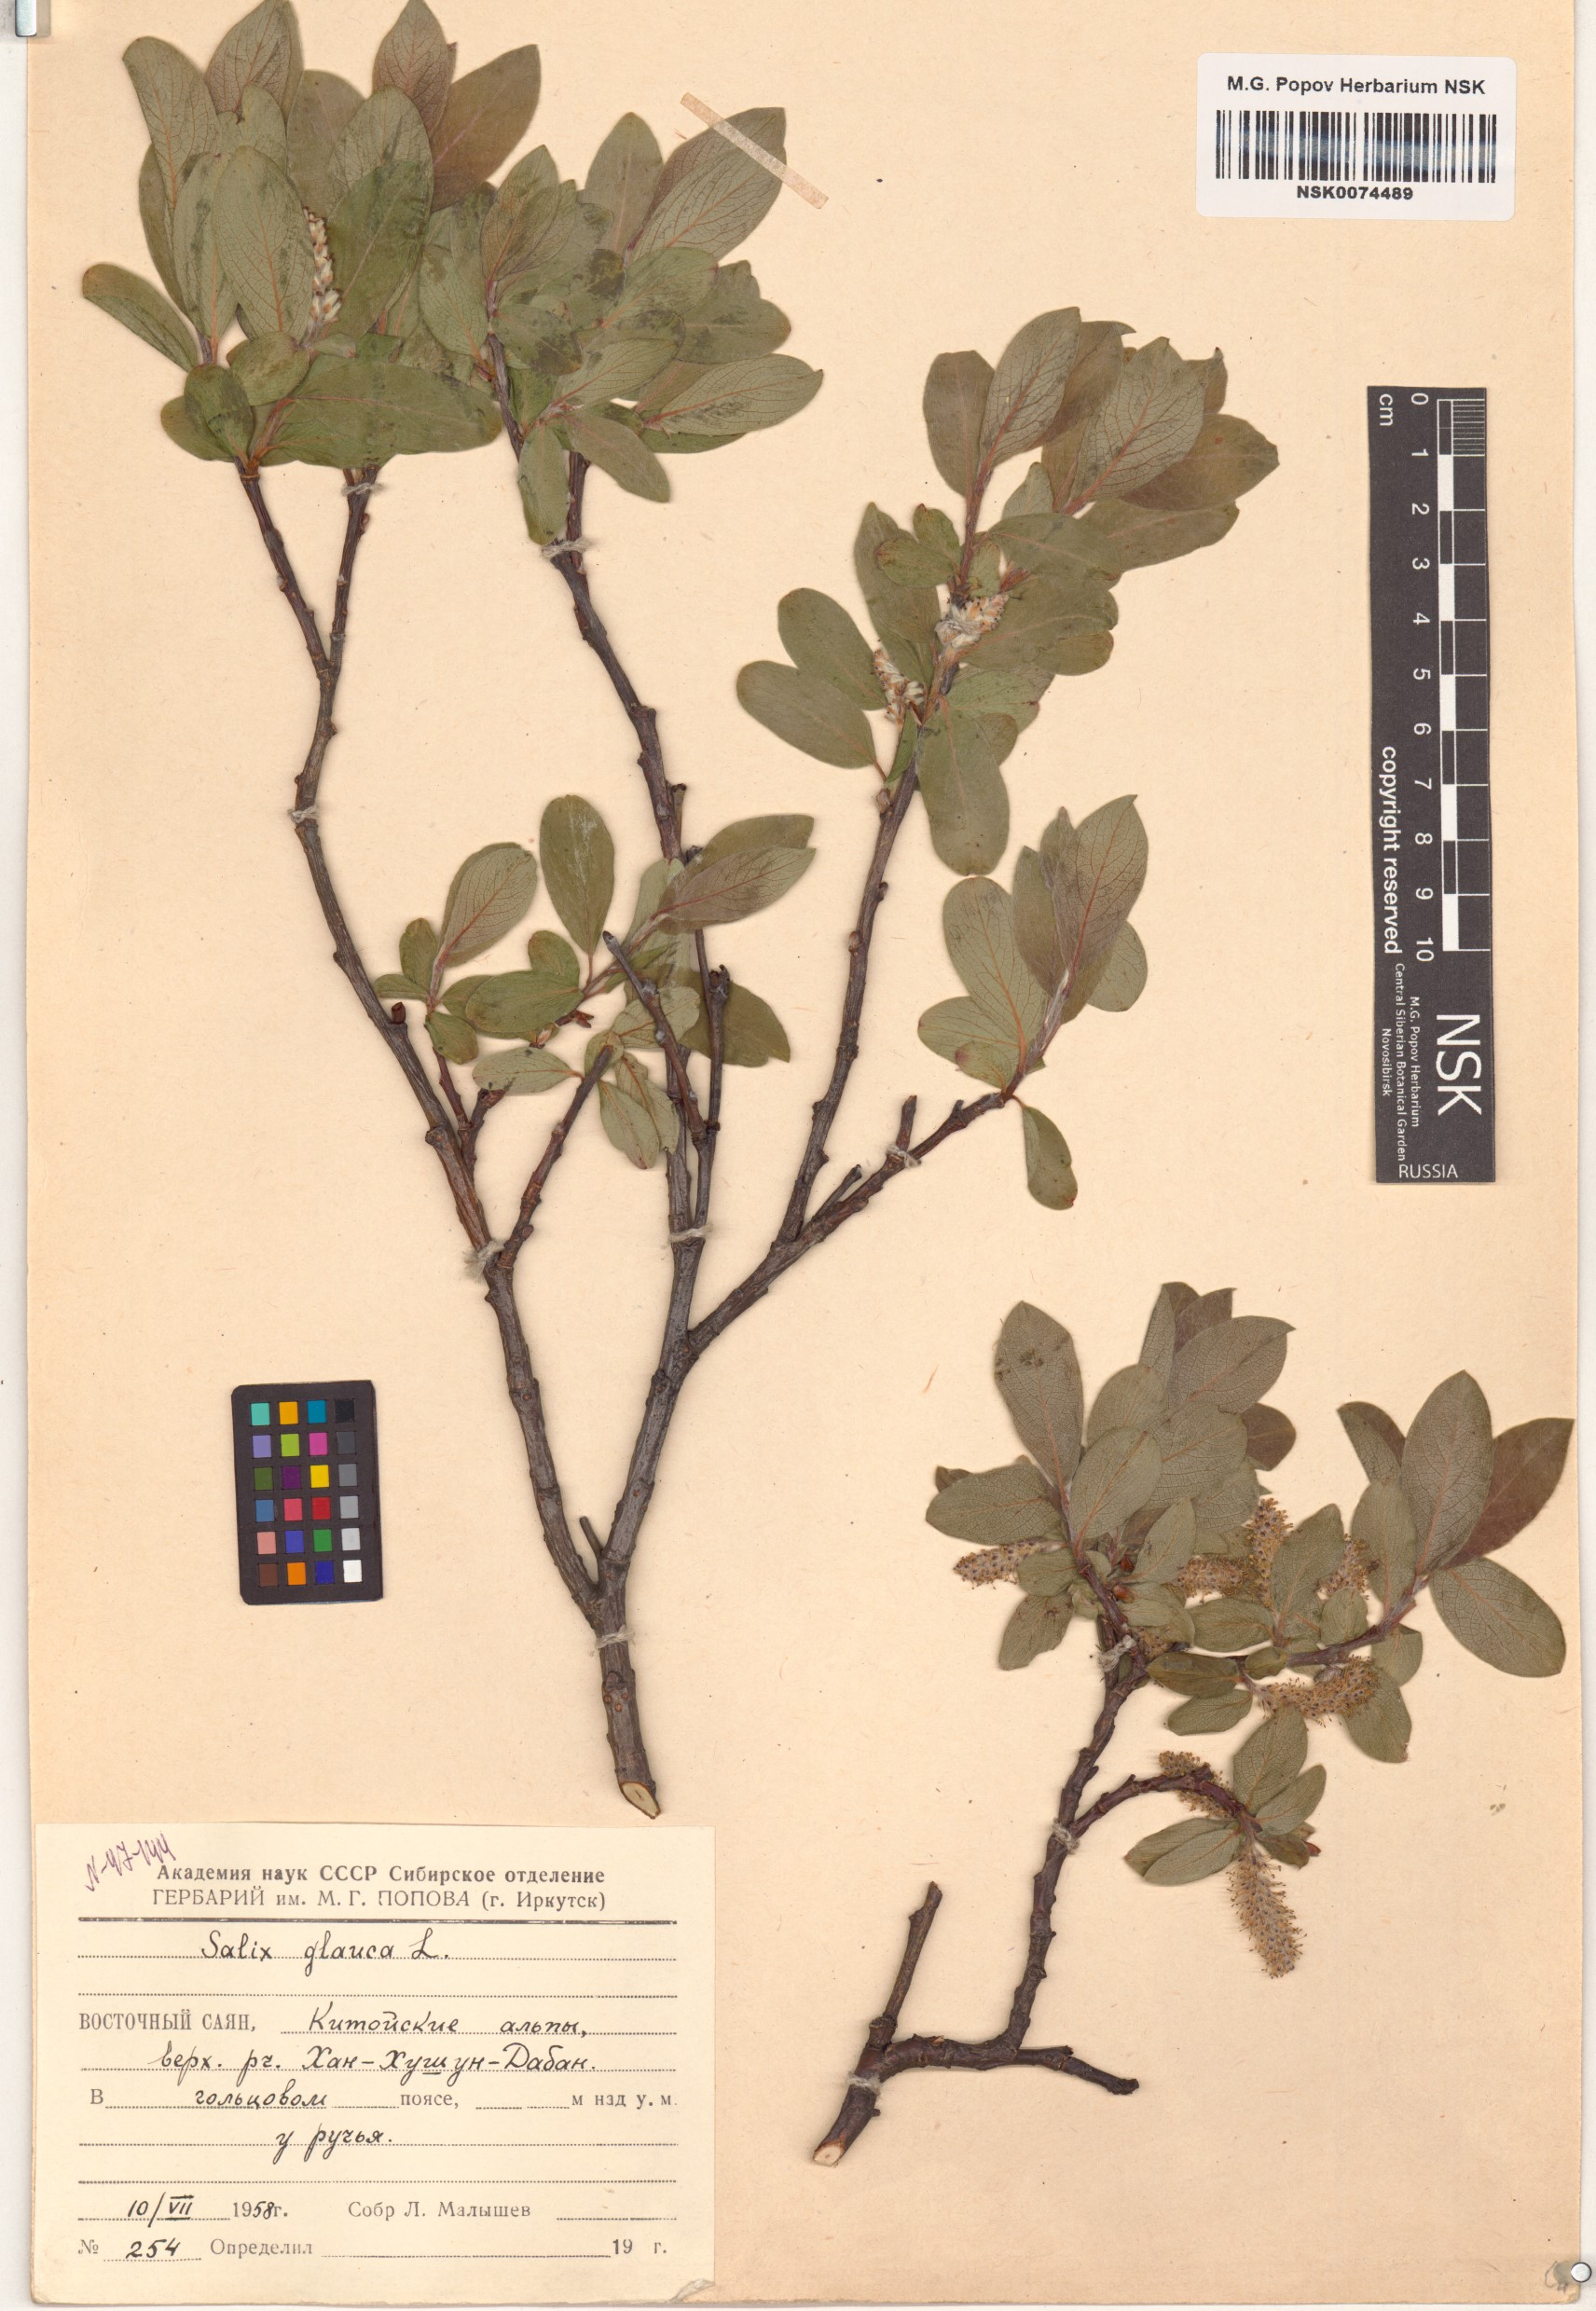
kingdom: Plantae
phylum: Tracheophyta
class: Magnoliopsida
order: Malpighiales
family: Salicaceae
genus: Salix
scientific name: Salix glauca
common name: Glaucous willow
